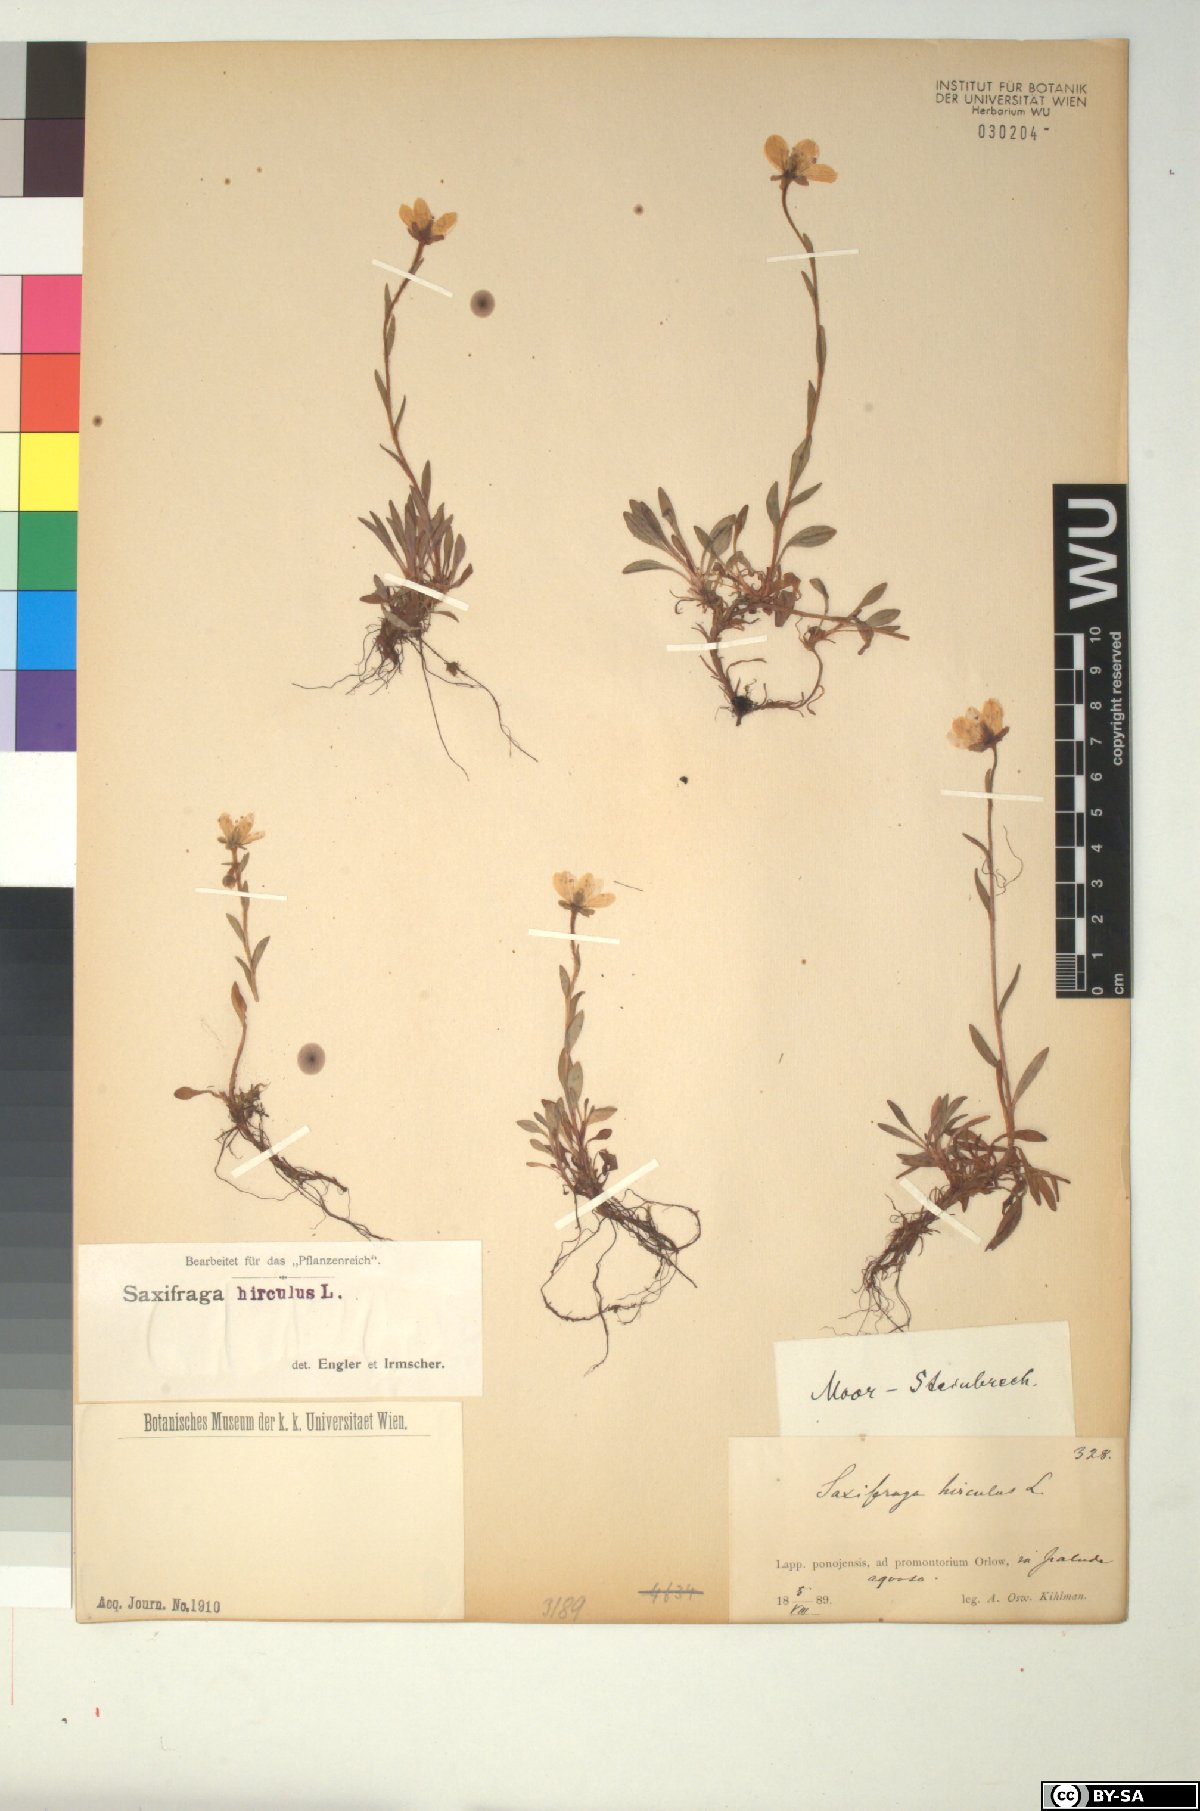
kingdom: Plantae
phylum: Tracheophyta
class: Magnoliopsida
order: Saxifragales
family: Saxifragaceae
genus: Saxifraga
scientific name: Saxifraga hirculus
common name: Yellow marsh saxifrage
